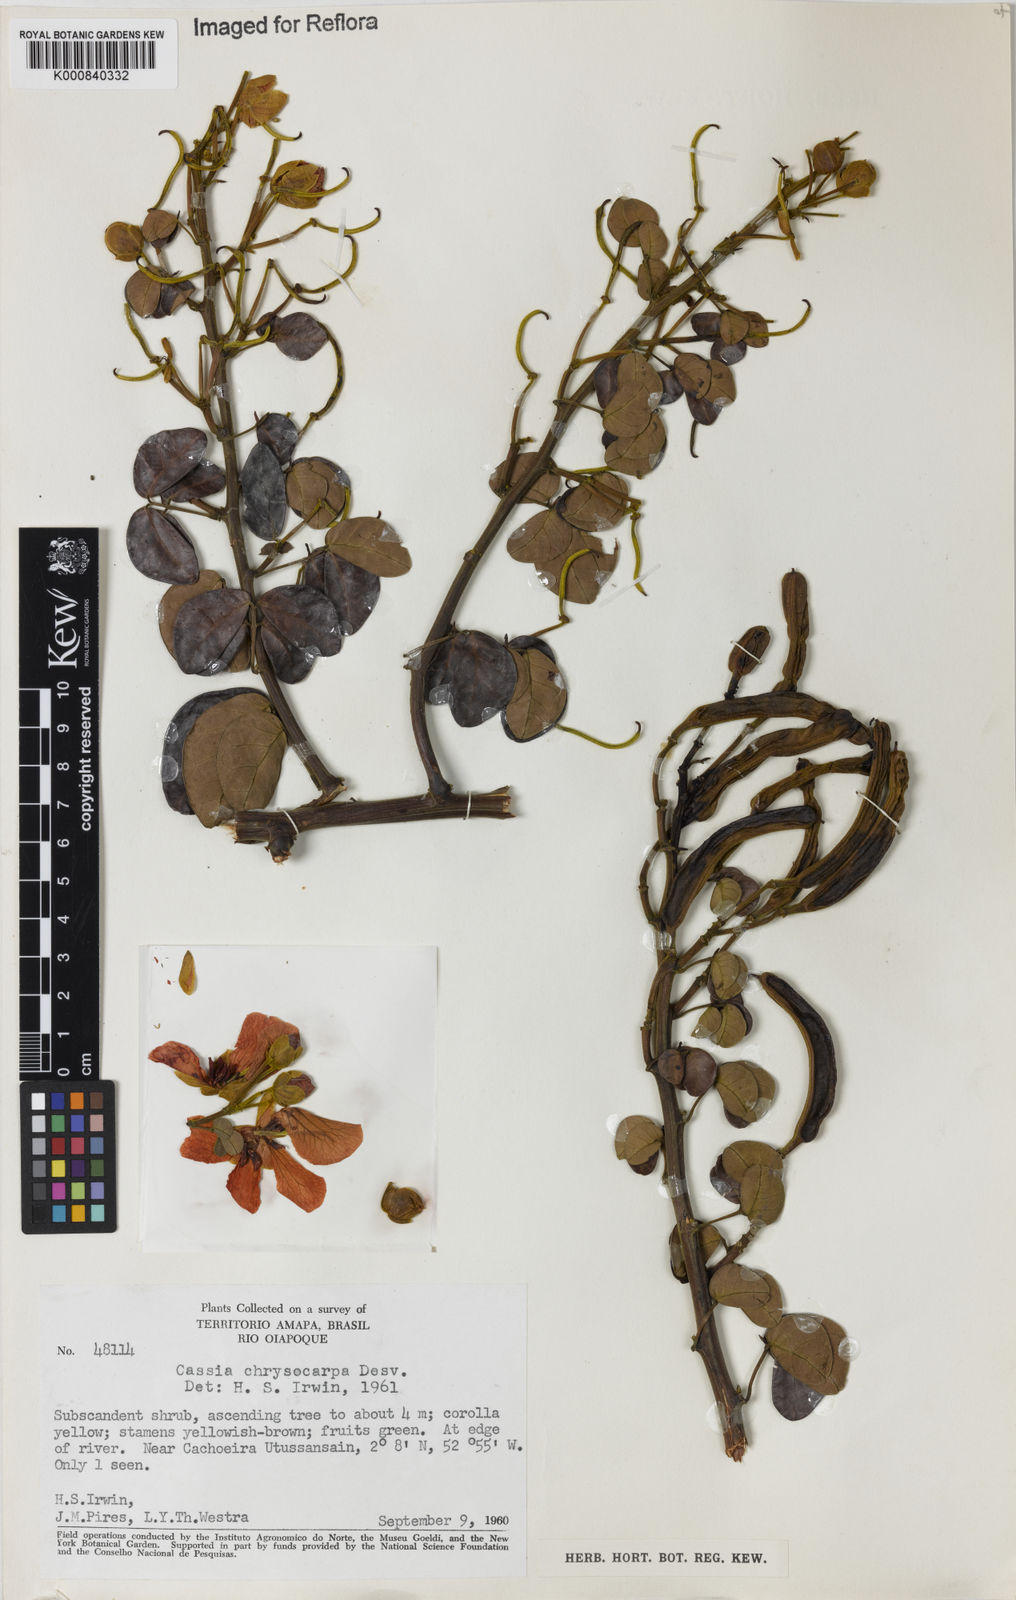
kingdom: Plantae
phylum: Tracheophyta
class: Magnoliopsida
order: Fabales
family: Fabaceae
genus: Senna
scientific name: Senna chrysocarpa
